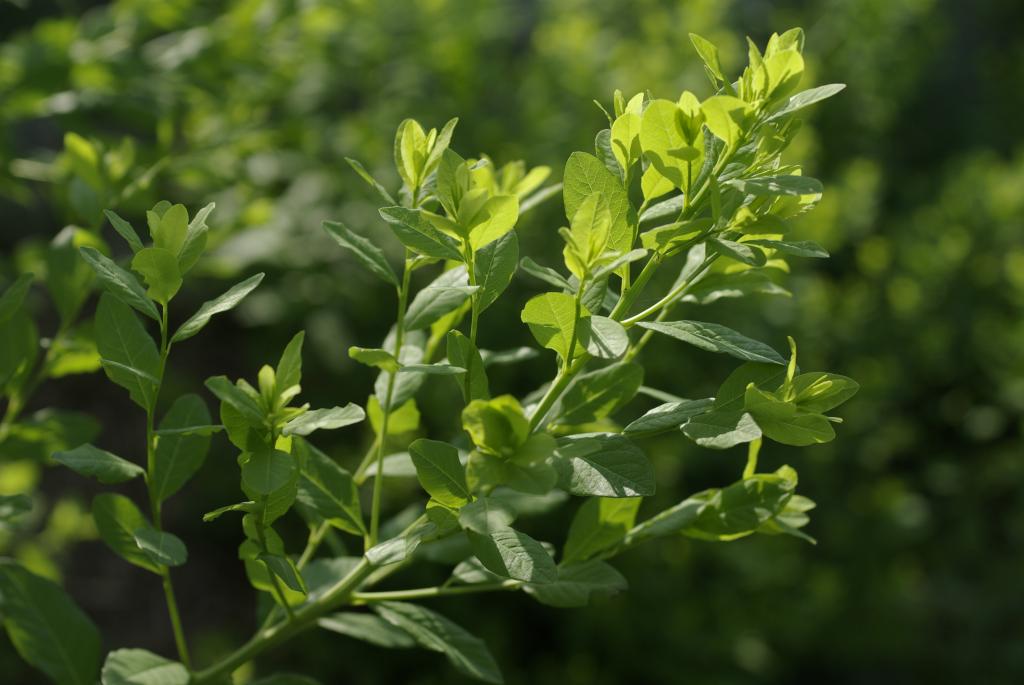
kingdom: Plantae
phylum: Tracheophyta
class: Magnoliopsida
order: Malpighiales
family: Phyllanthaceae
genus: Flueggea
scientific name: Flueggea suffruticosa
